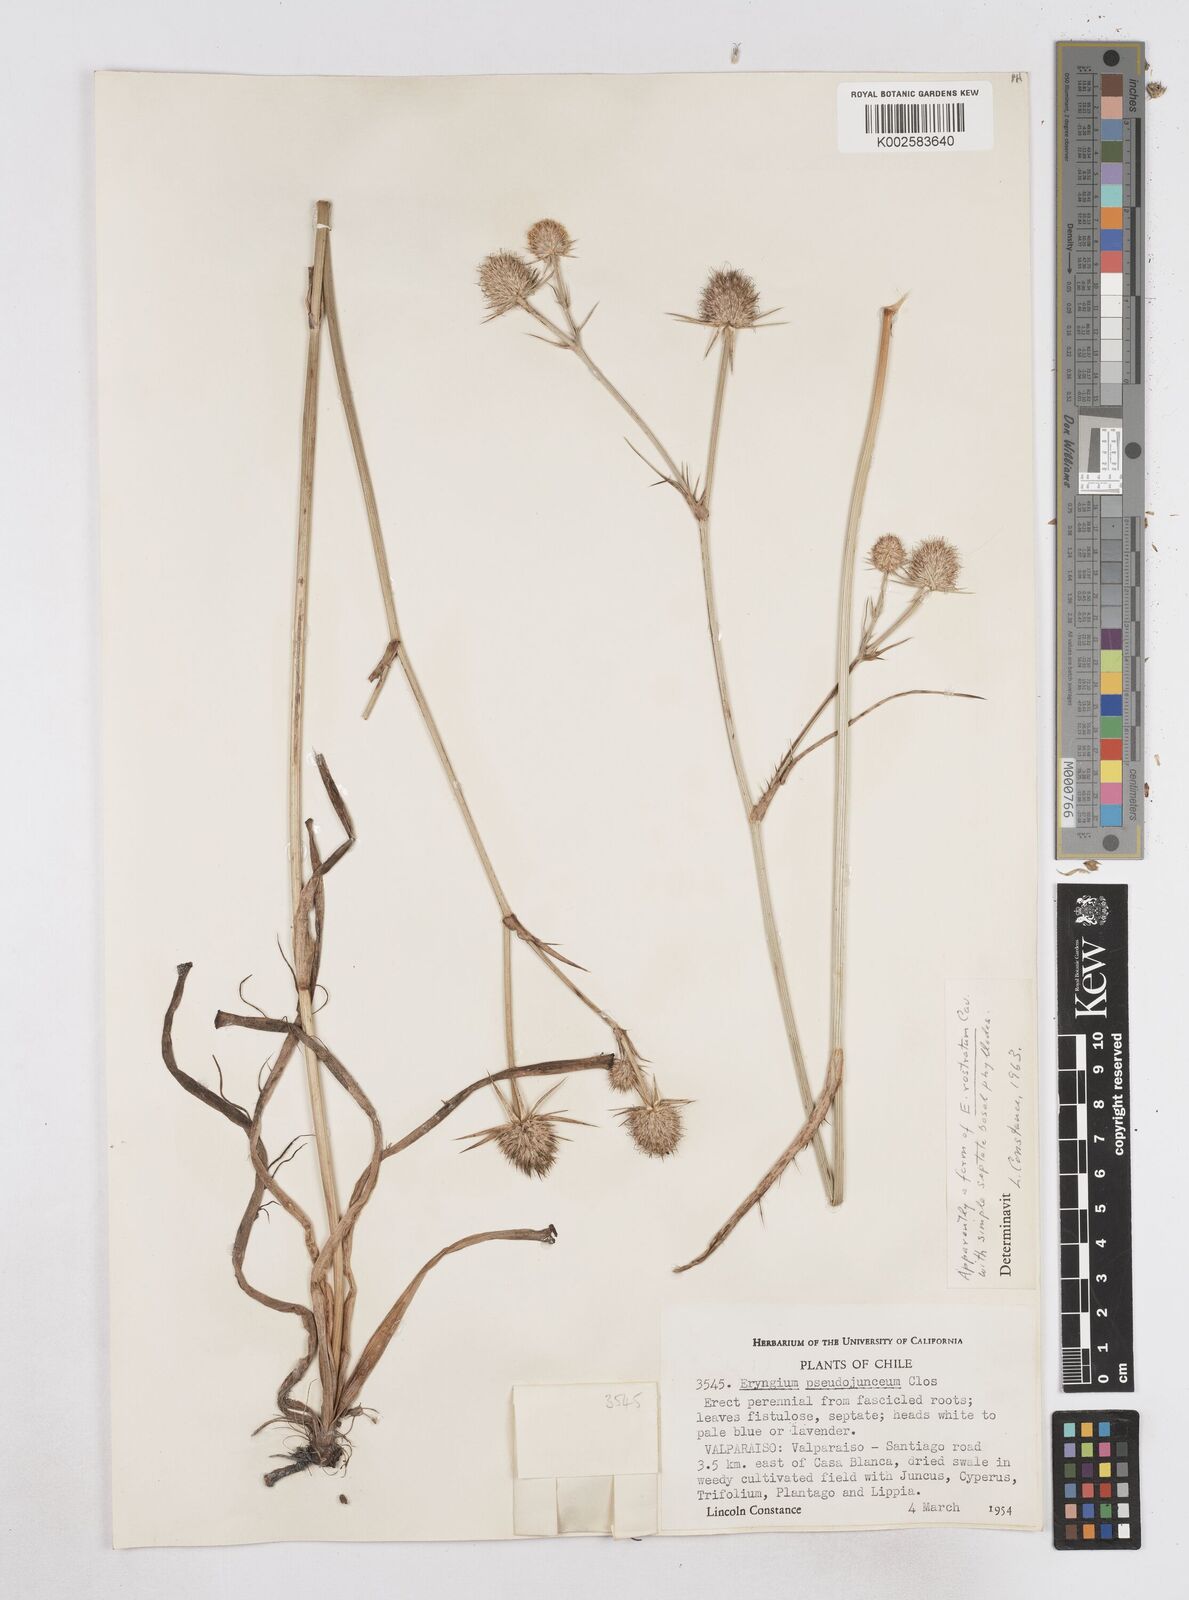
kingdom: Plantae
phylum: Tracheophyta
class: Magnoliopsida
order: Apiales
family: Apiaceae
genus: Eryngium
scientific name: Eryngium rostratum
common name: Blue eryngo
